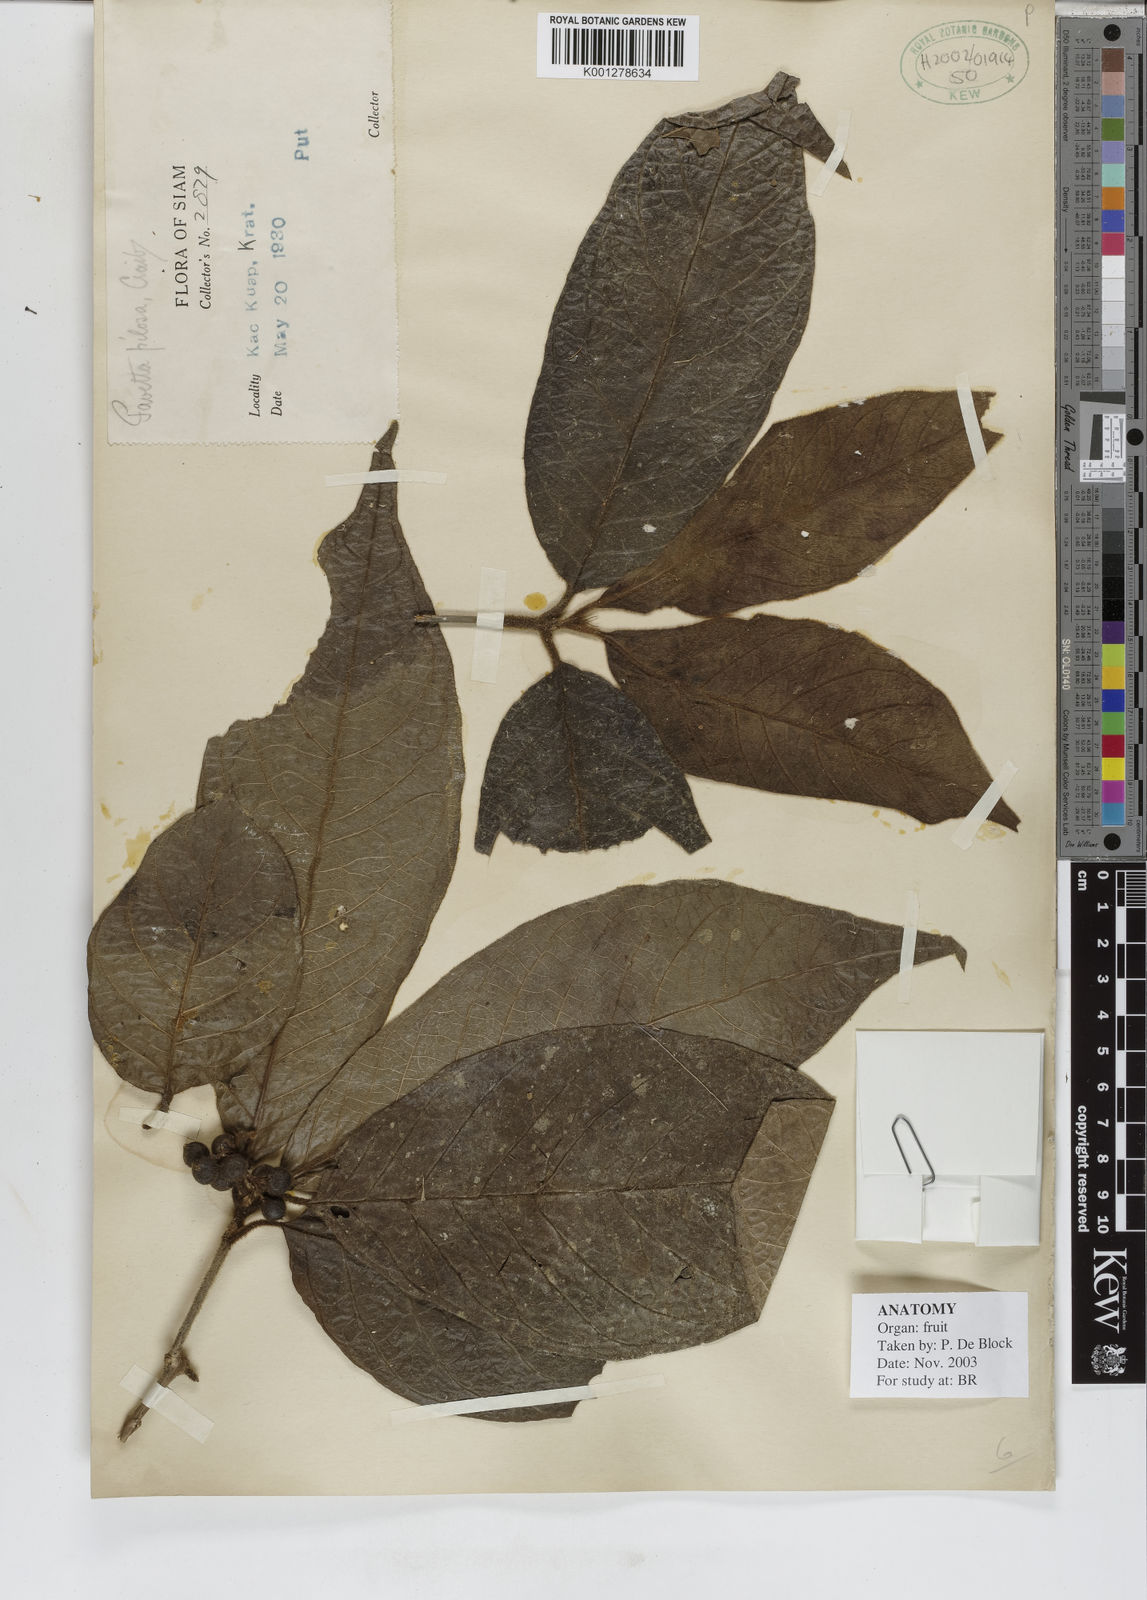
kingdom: Plantae
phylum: Tracheophyta
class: Magnoliopsida
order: Gentianales
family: Rubiaceae
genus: Tarenna
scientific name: Tarenna pilosa
